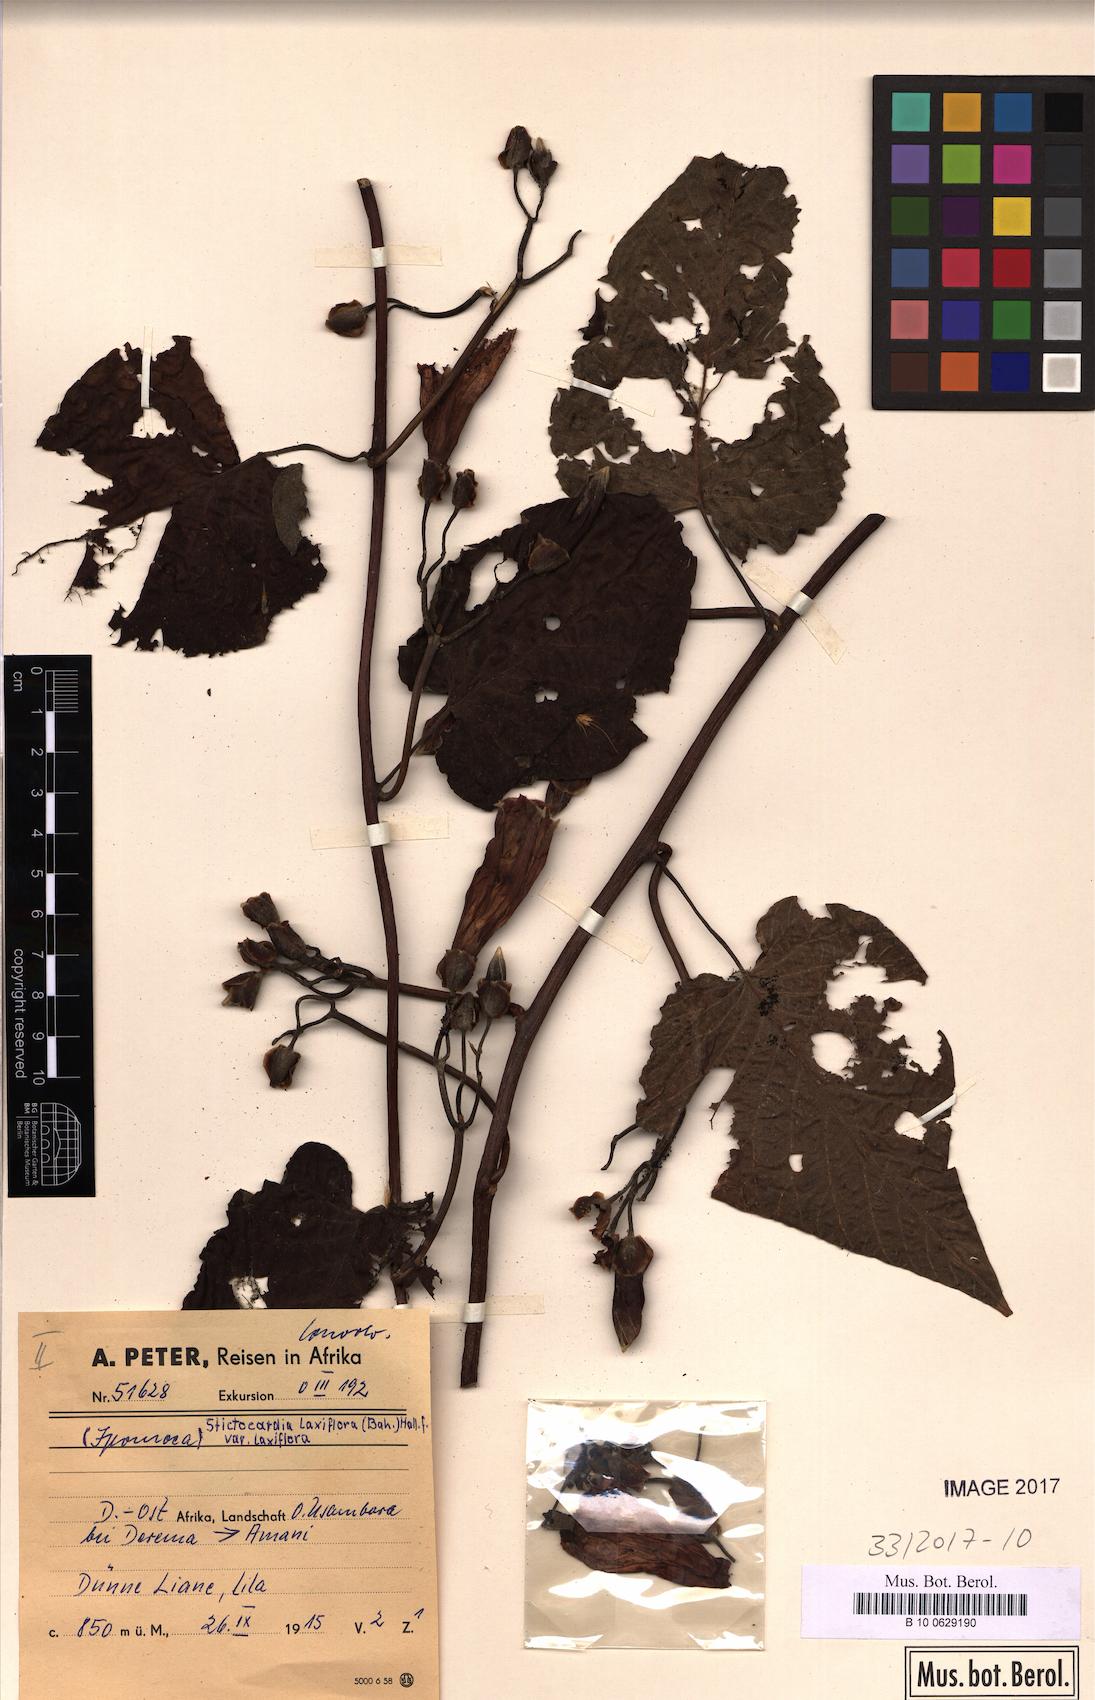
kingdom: Plantae
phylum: Tracheophyta
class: Magnoliopsida
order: Solanales
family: Convolvulaceae
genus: Stictocardia
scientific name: Stictocardia laxiflora
